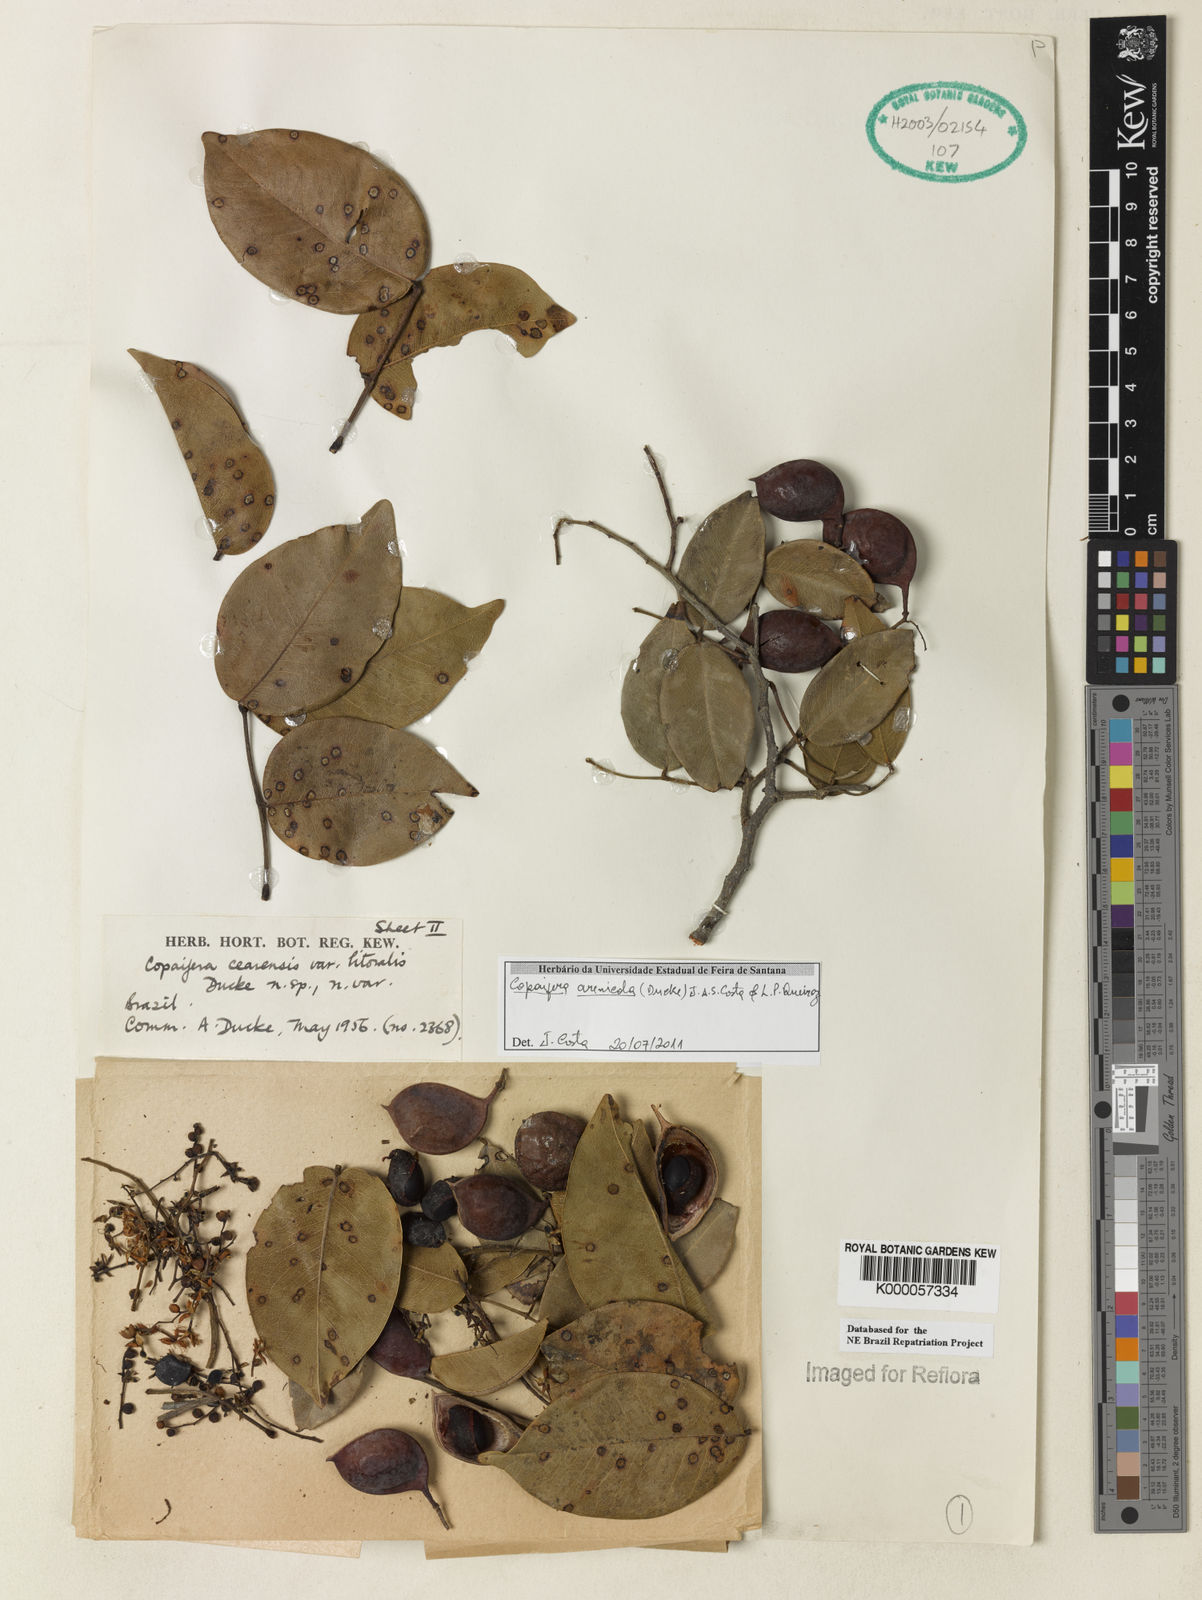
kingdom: Plantae
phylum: Tracheophyta
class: Magnoliopsida
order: Fabales
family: Fabaceae
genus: Copaifera
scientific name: Copaifera
